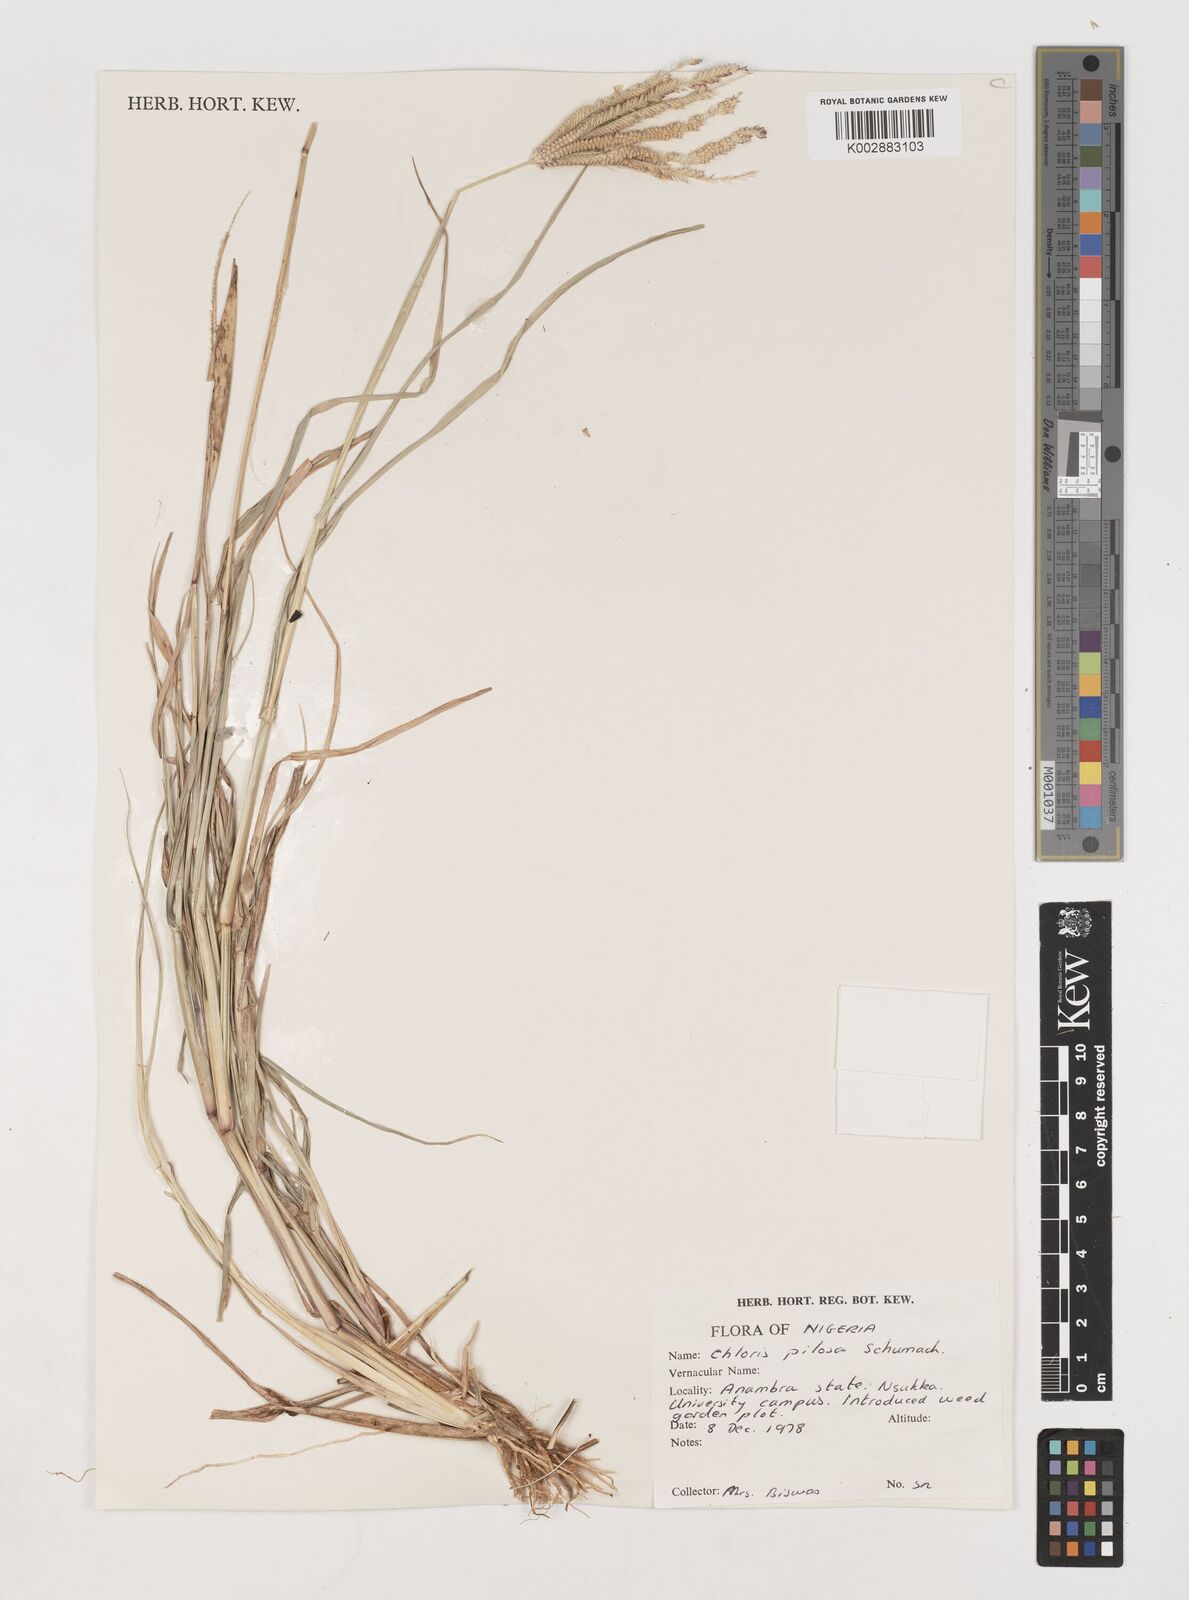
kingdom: Plantae
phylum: Tracheophyta
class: Liliopsida
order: Poales
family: Poaceae
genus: Chloris
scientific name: Chloris pilosa
